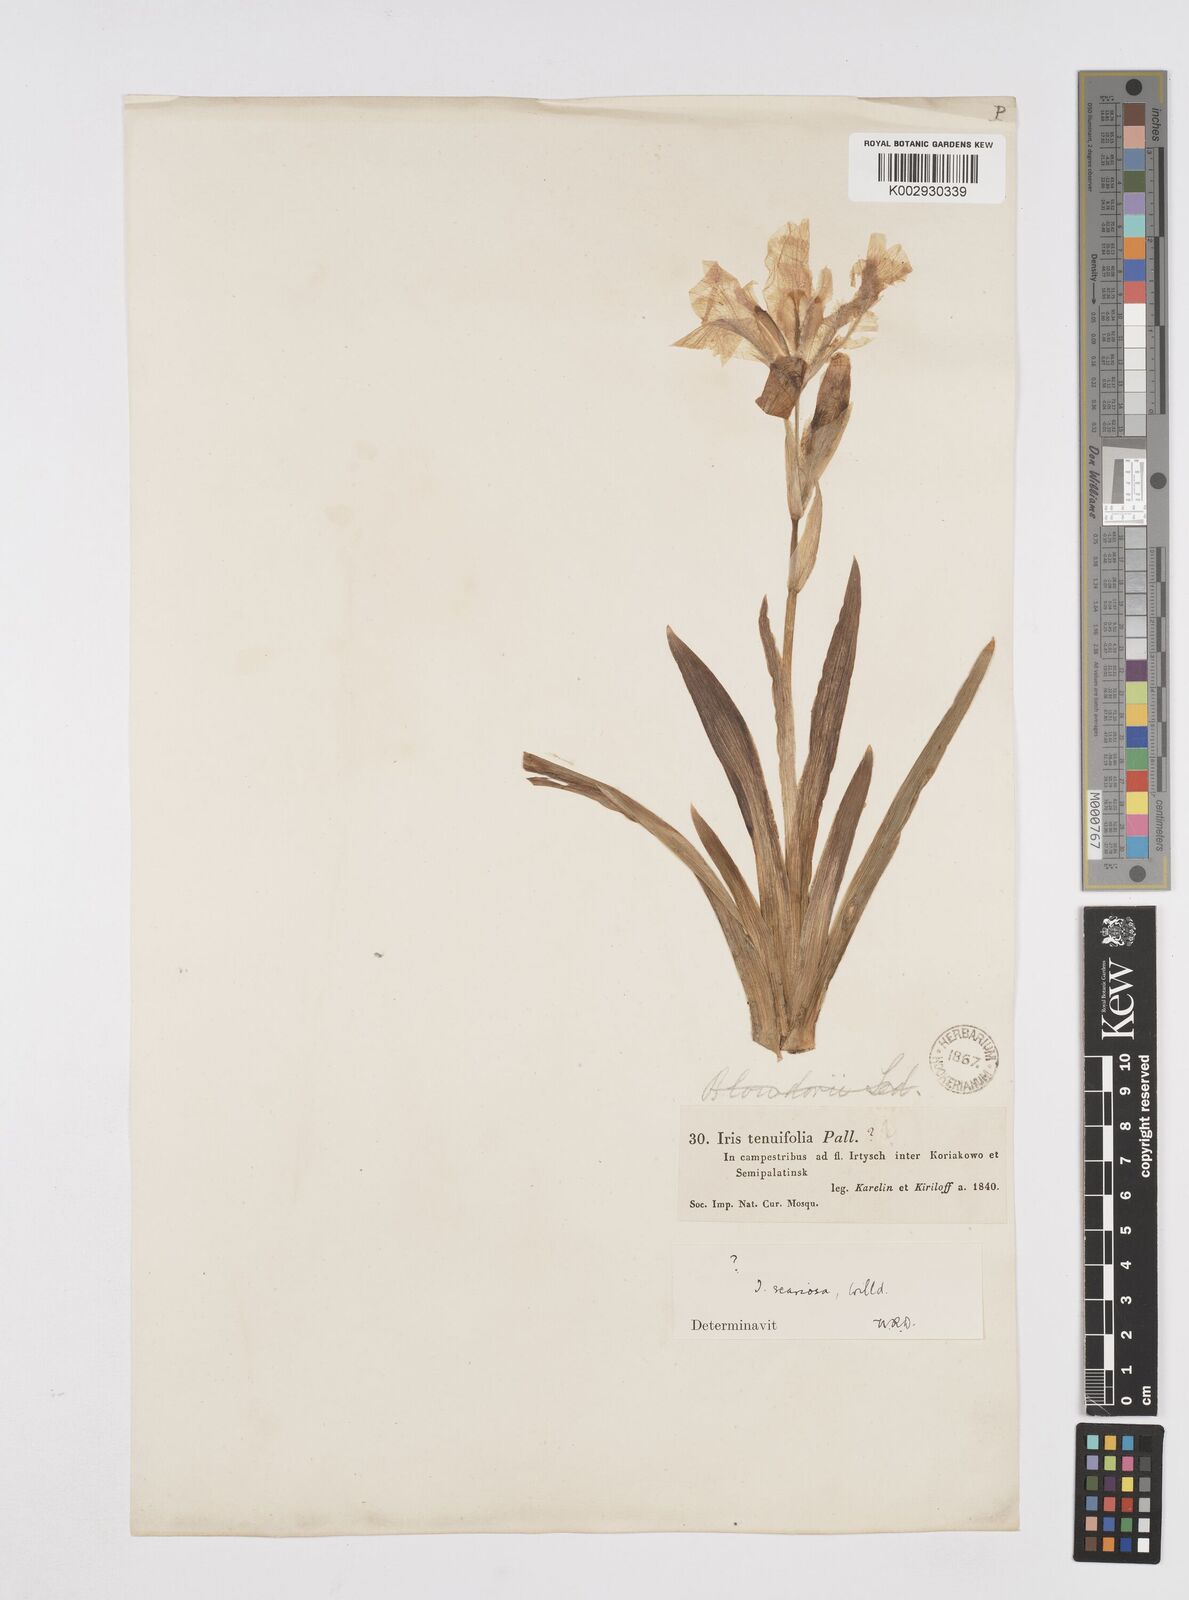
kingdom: Plantae
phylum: Tracheophyta
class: Liliopsida
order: Asparagales
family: Iridaceae
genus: Iris
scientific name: Iris scariosa
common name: Membrane-bract iris
